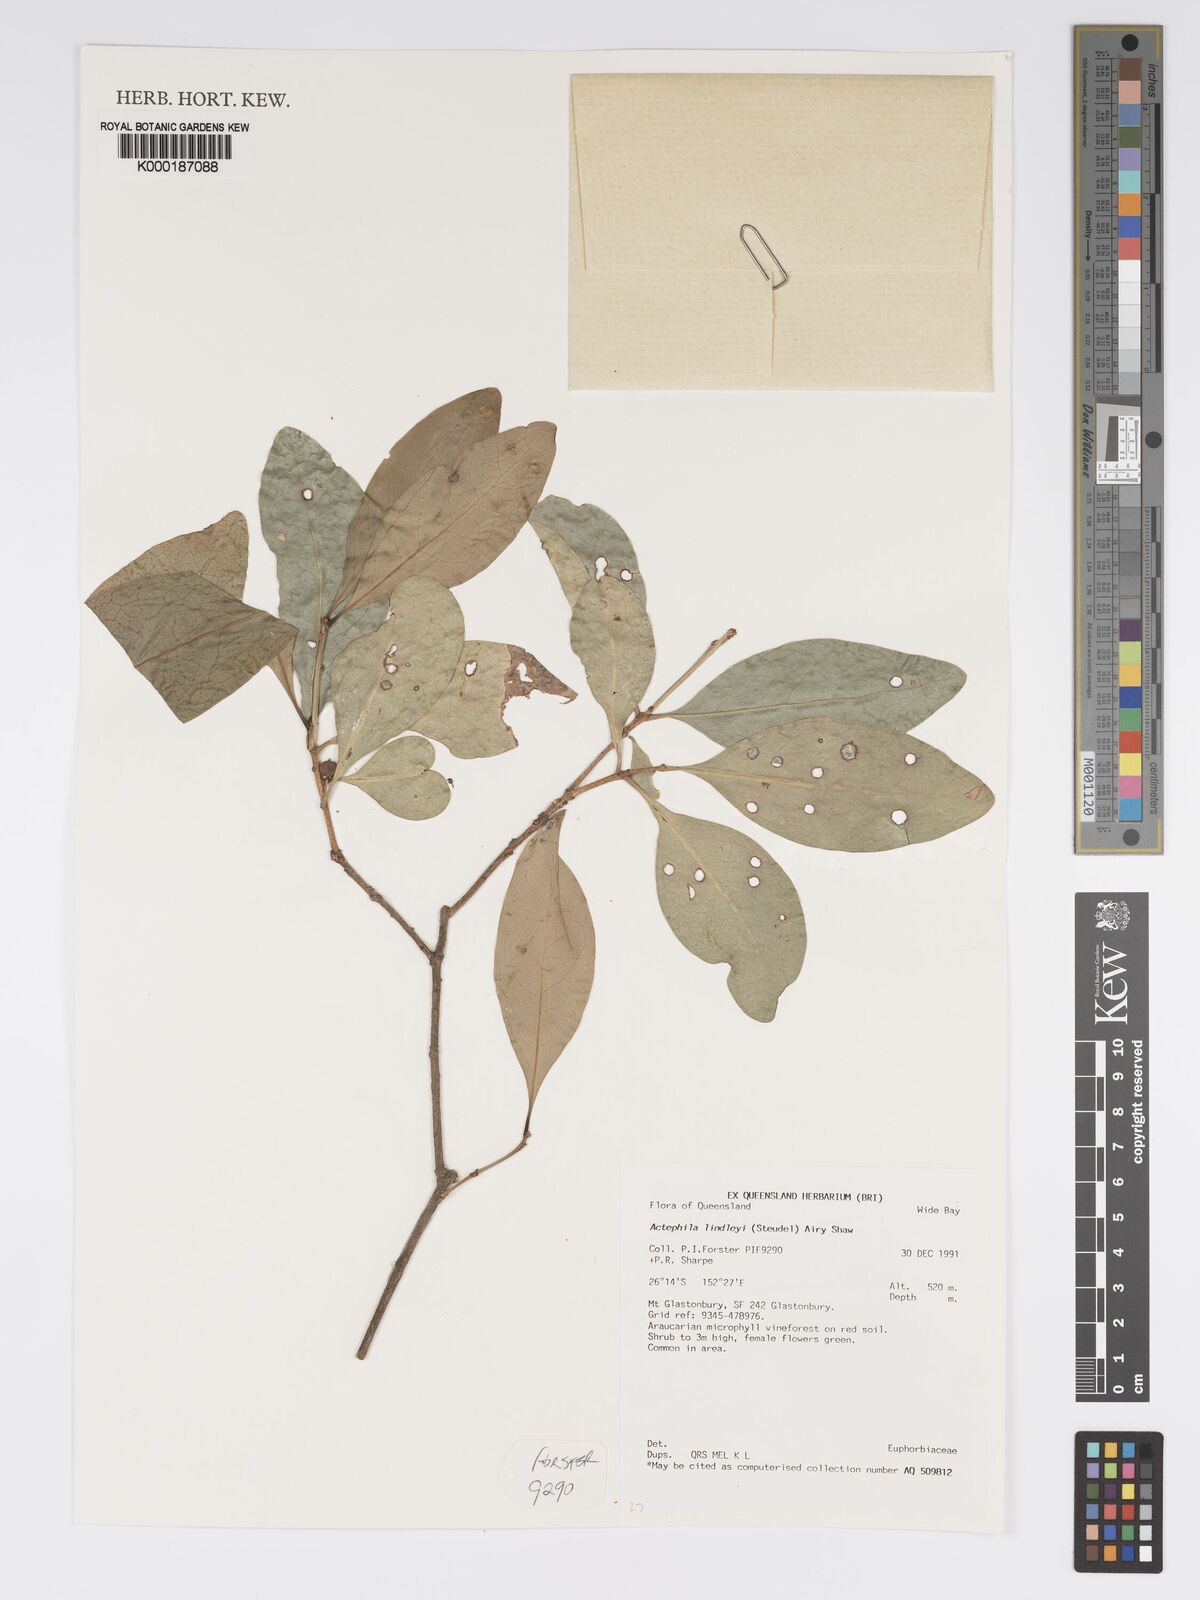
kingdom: Plantae
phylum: Tracheophyta
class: Magnoliopsida
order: Malpighiales
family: Phyllanthaceae
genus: Actephila
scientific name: Actephila lindleyi
